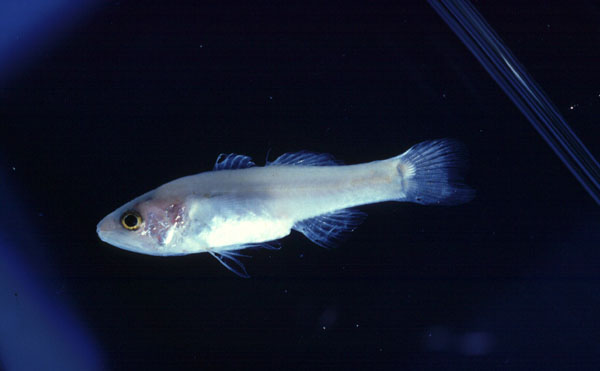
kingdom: Animalia
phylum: Chordata
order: Perciformes
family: Apogonidae
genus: Pseudamiops
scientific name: Pseudamiops pellucidus
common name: Limpid cardinal
